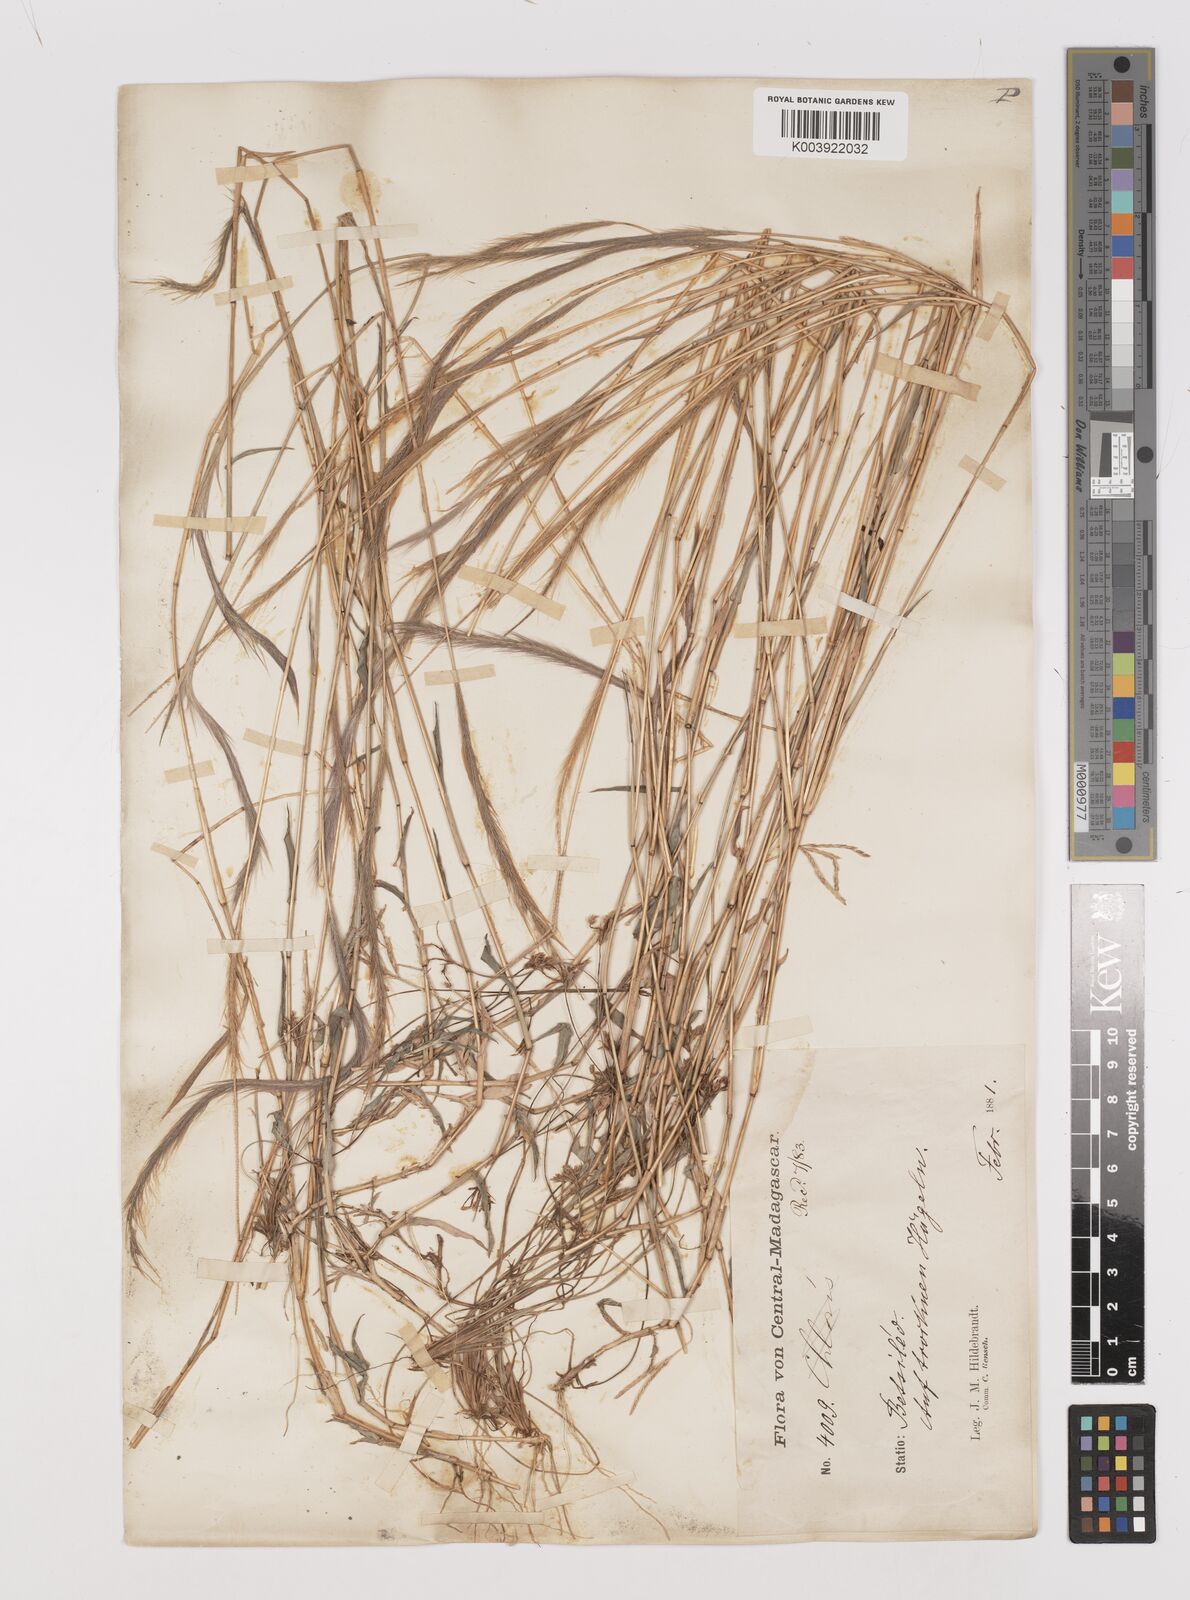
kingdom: Plantae
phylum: Tracheophyta
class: Liliopsida
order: Poales
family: Poaceae
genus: Perotis
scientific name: Perotis patens
